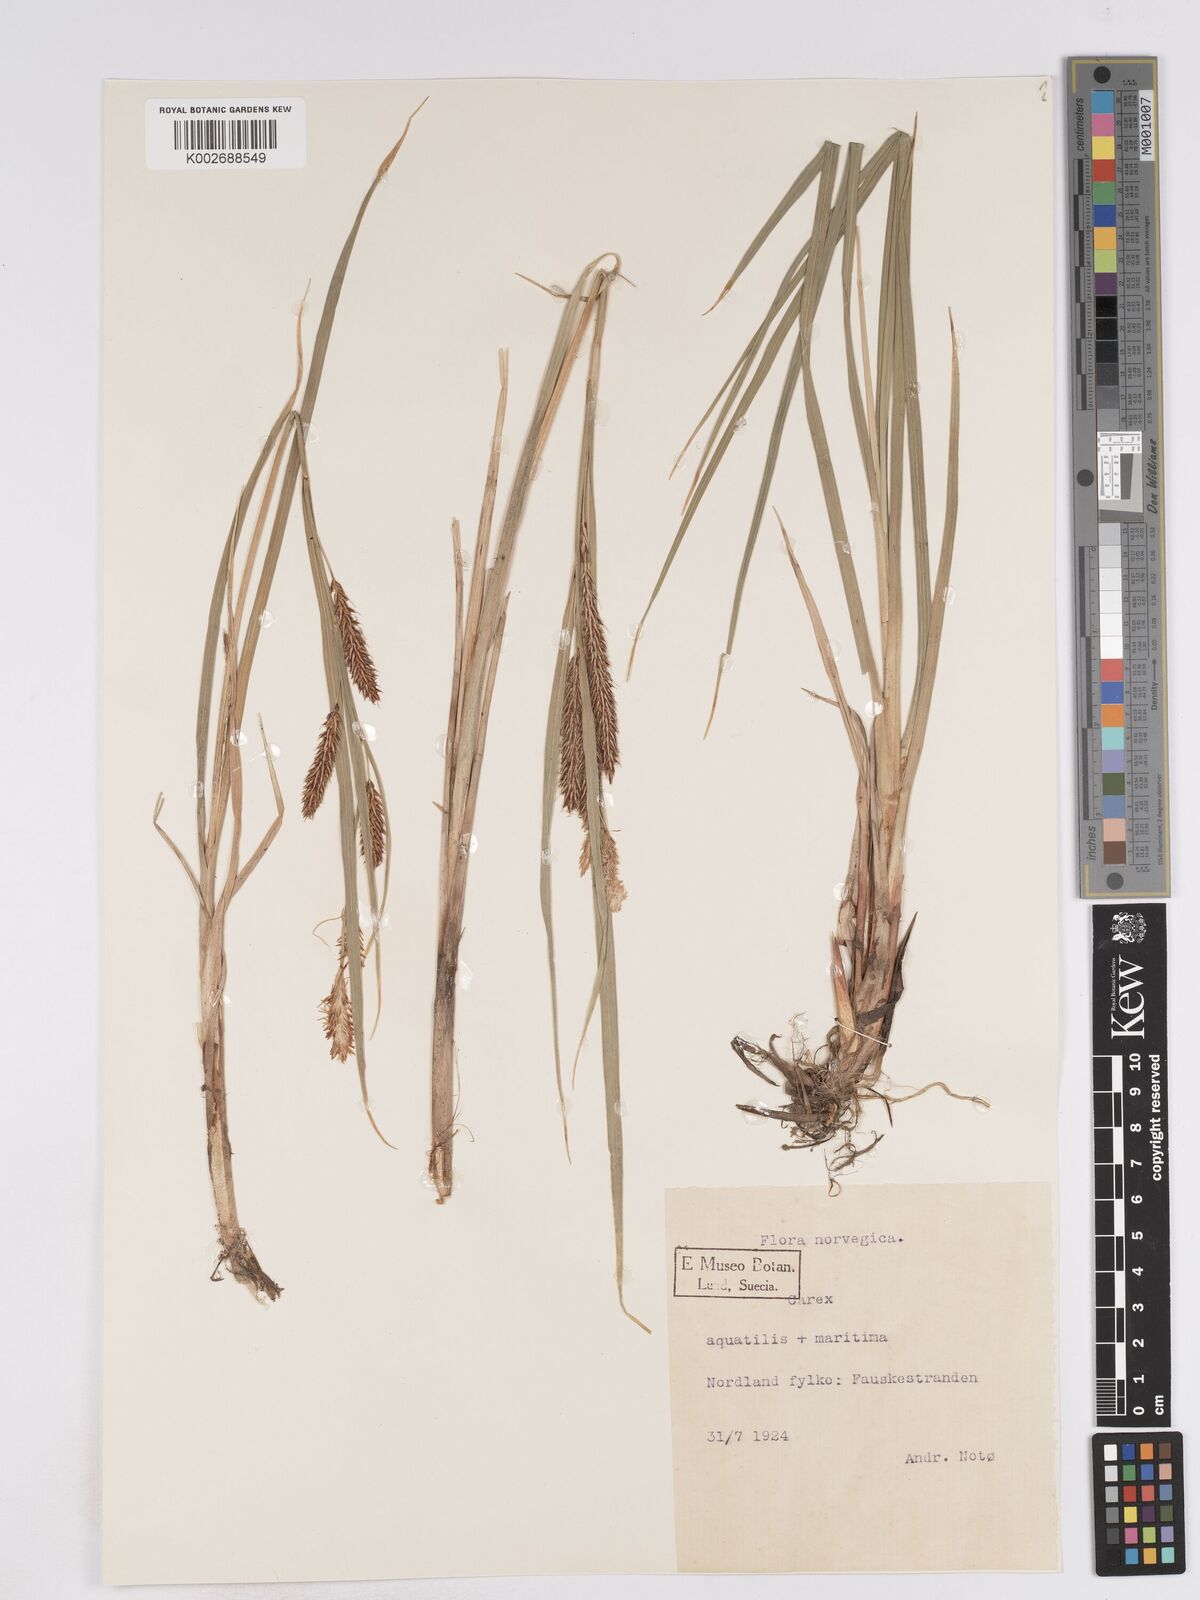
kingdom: Plantae
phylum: Tracheophyta
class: Liliopsida
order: Poales
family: Cyperaceae
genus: Carex
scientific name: Carex recta
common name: Estuarine sedge
